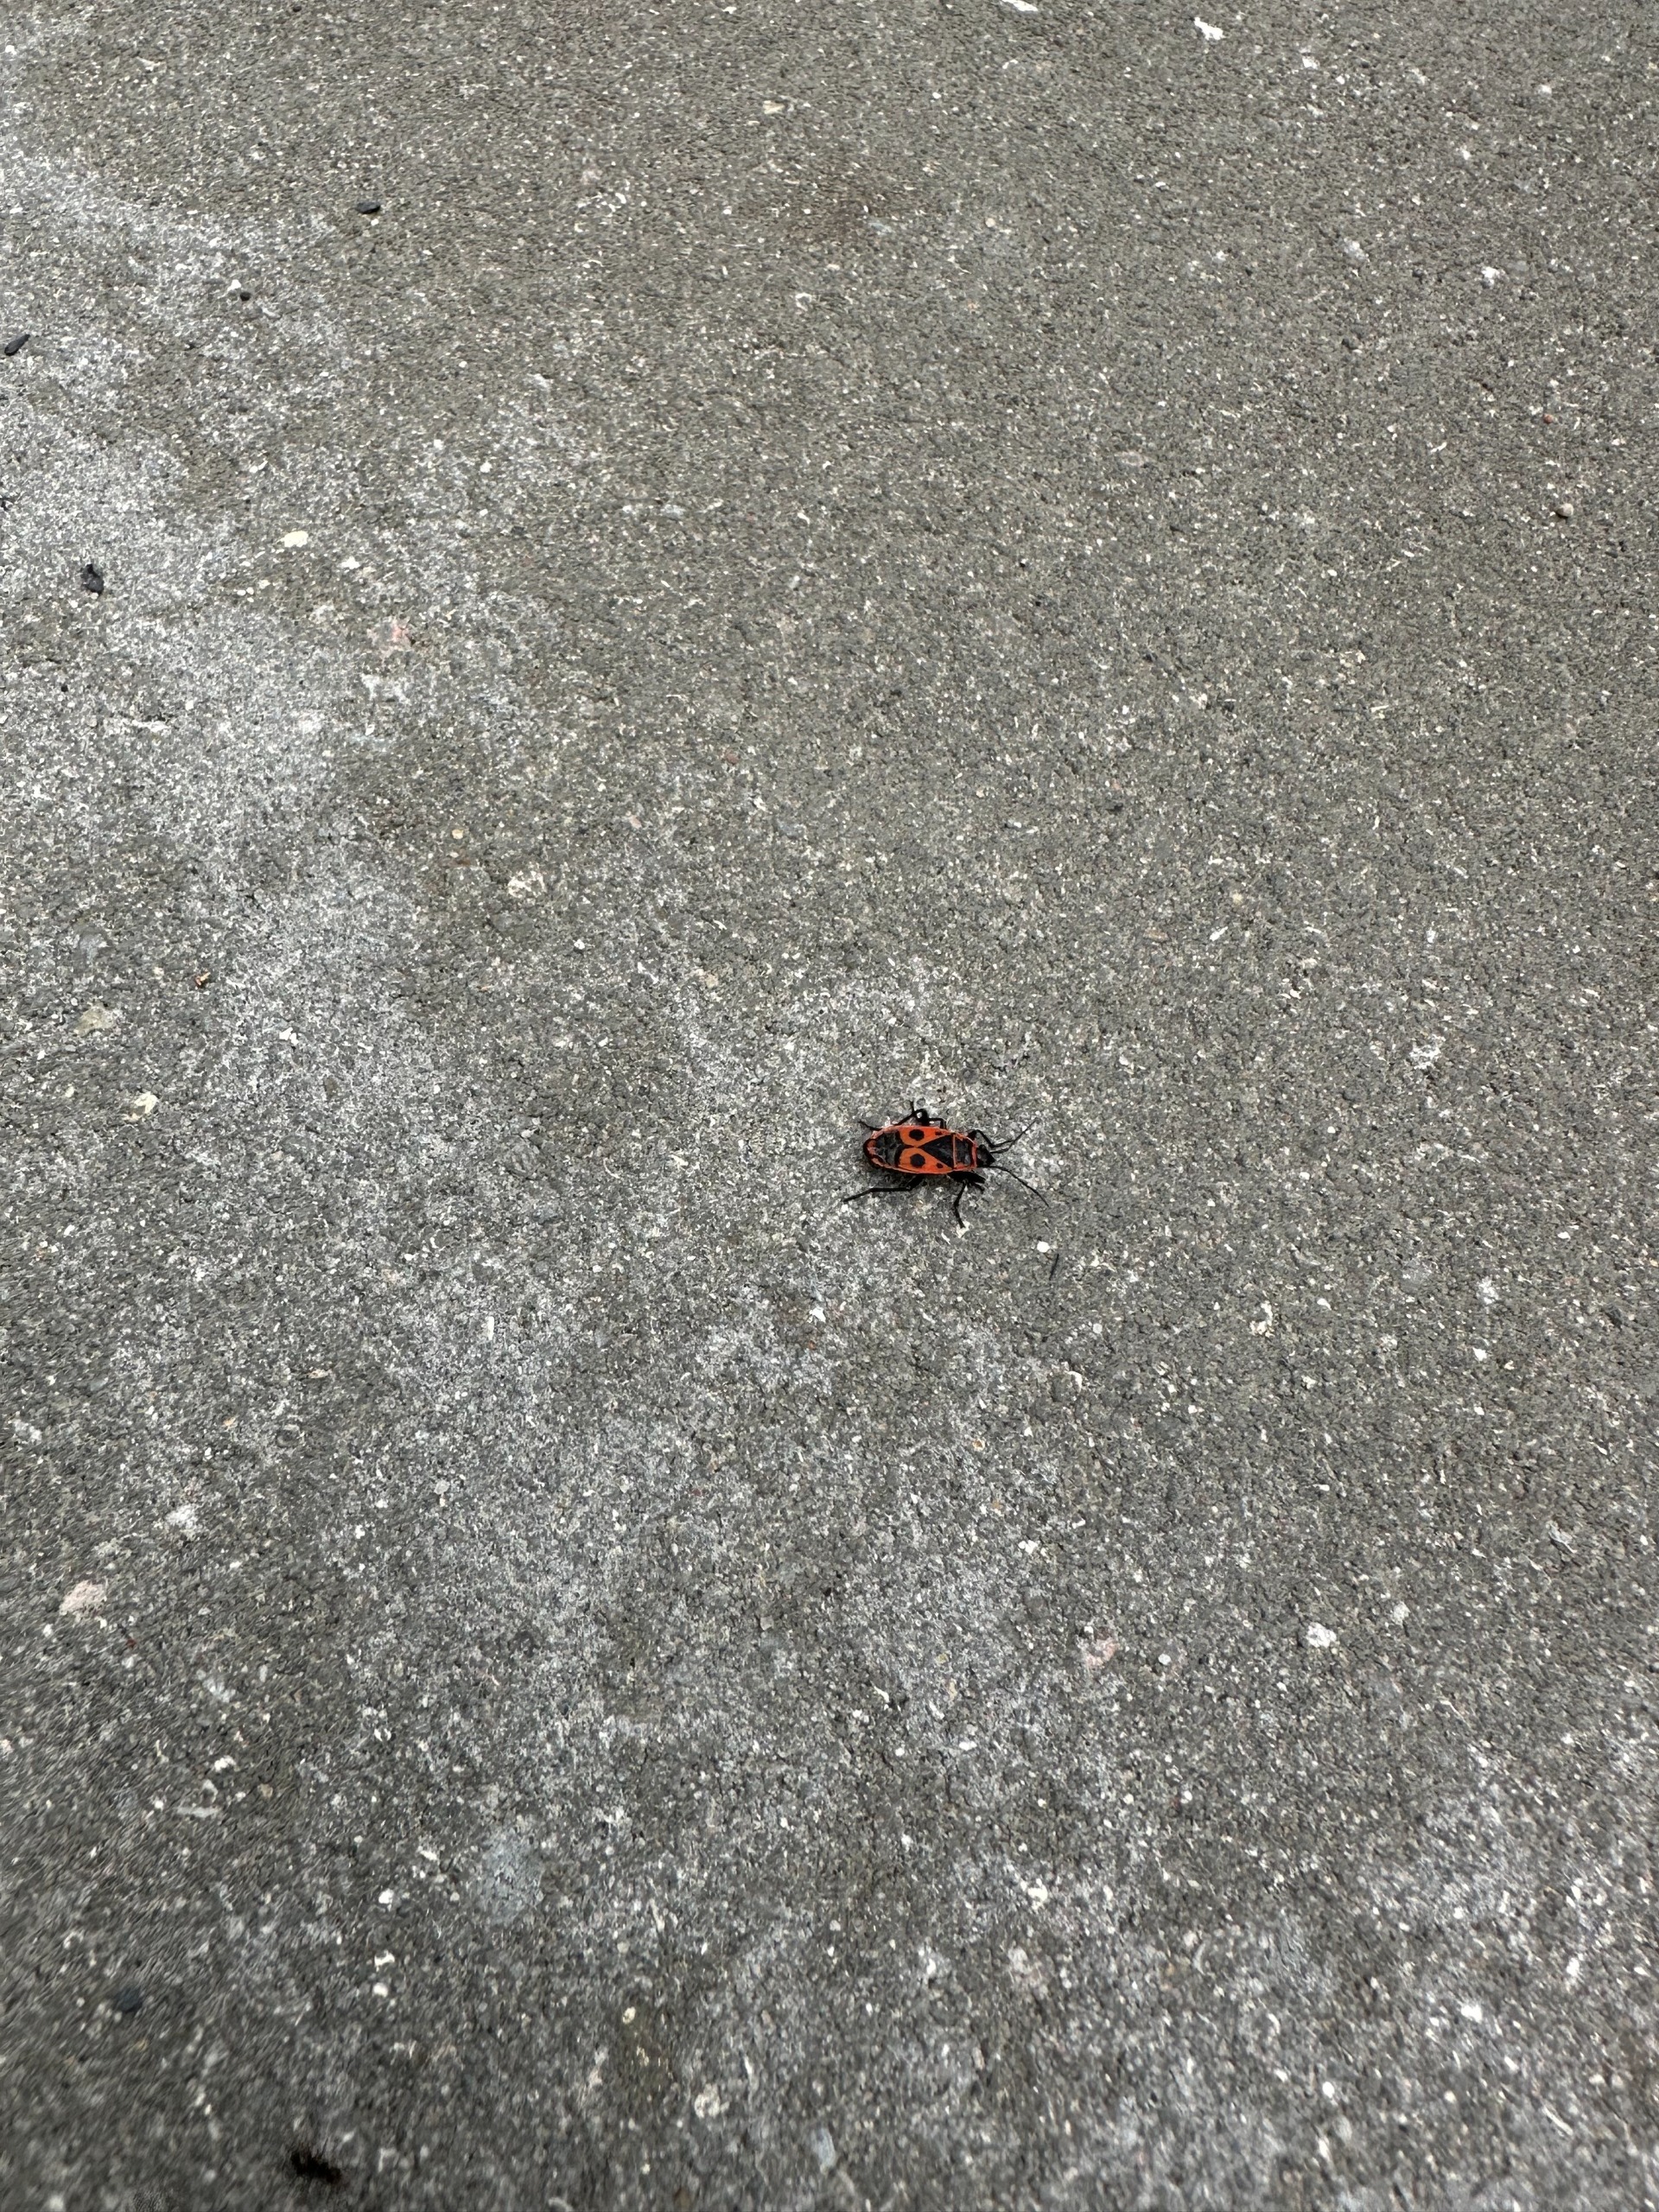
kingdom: Animalia
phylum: Arthropoda
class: Insecta
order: Hemiptera
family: Pyrrhocoridae
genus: Pyrrhocoris
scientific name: Pyrrhocoris apterus
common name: Ildtæge
